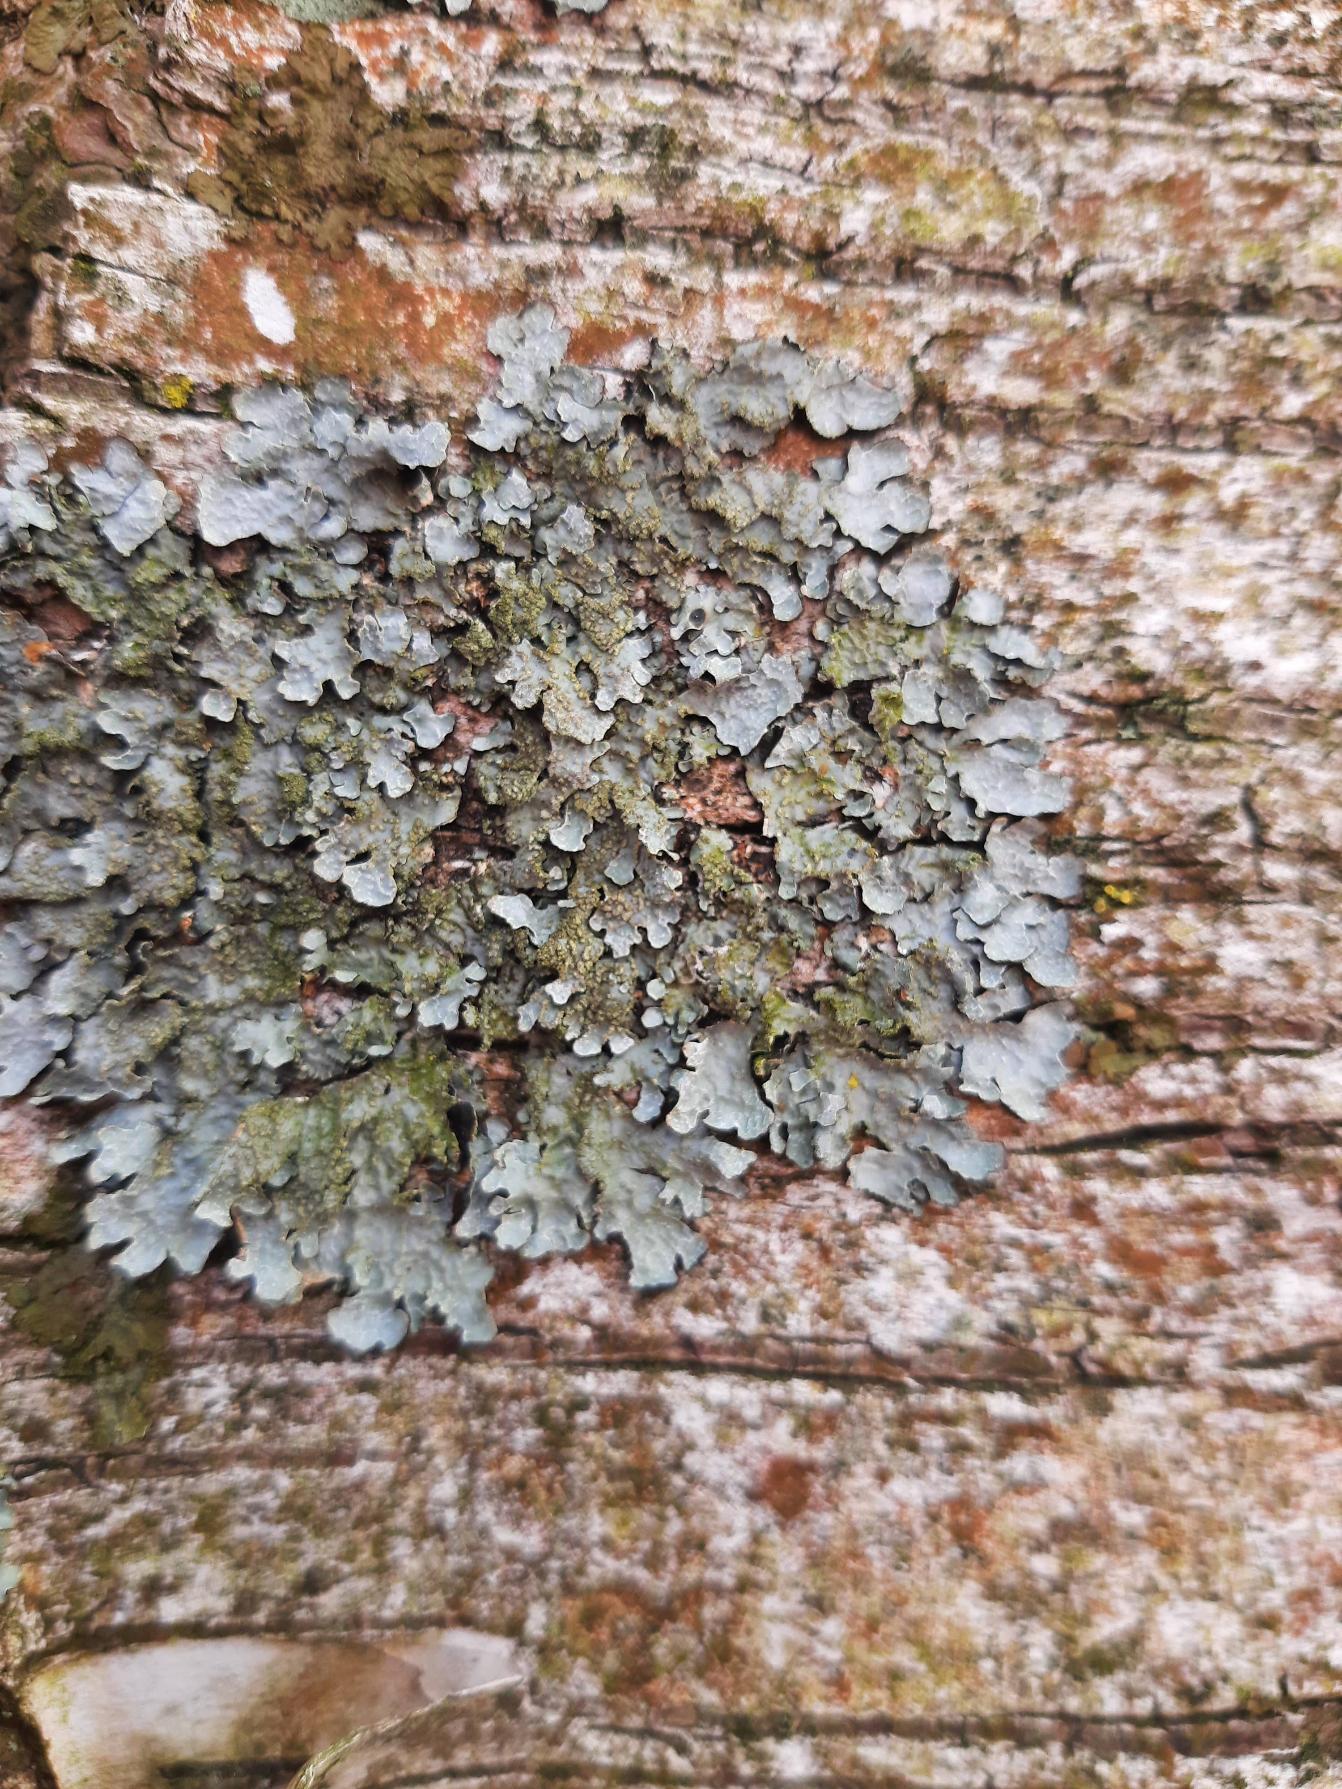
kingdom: Fungi
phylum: Ascomycota
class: Lecanoromycetes
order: Lecanorales
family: Parmeliaceae
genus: Parmelia
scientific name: Parmelia sulcata
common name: Rynket skållav
